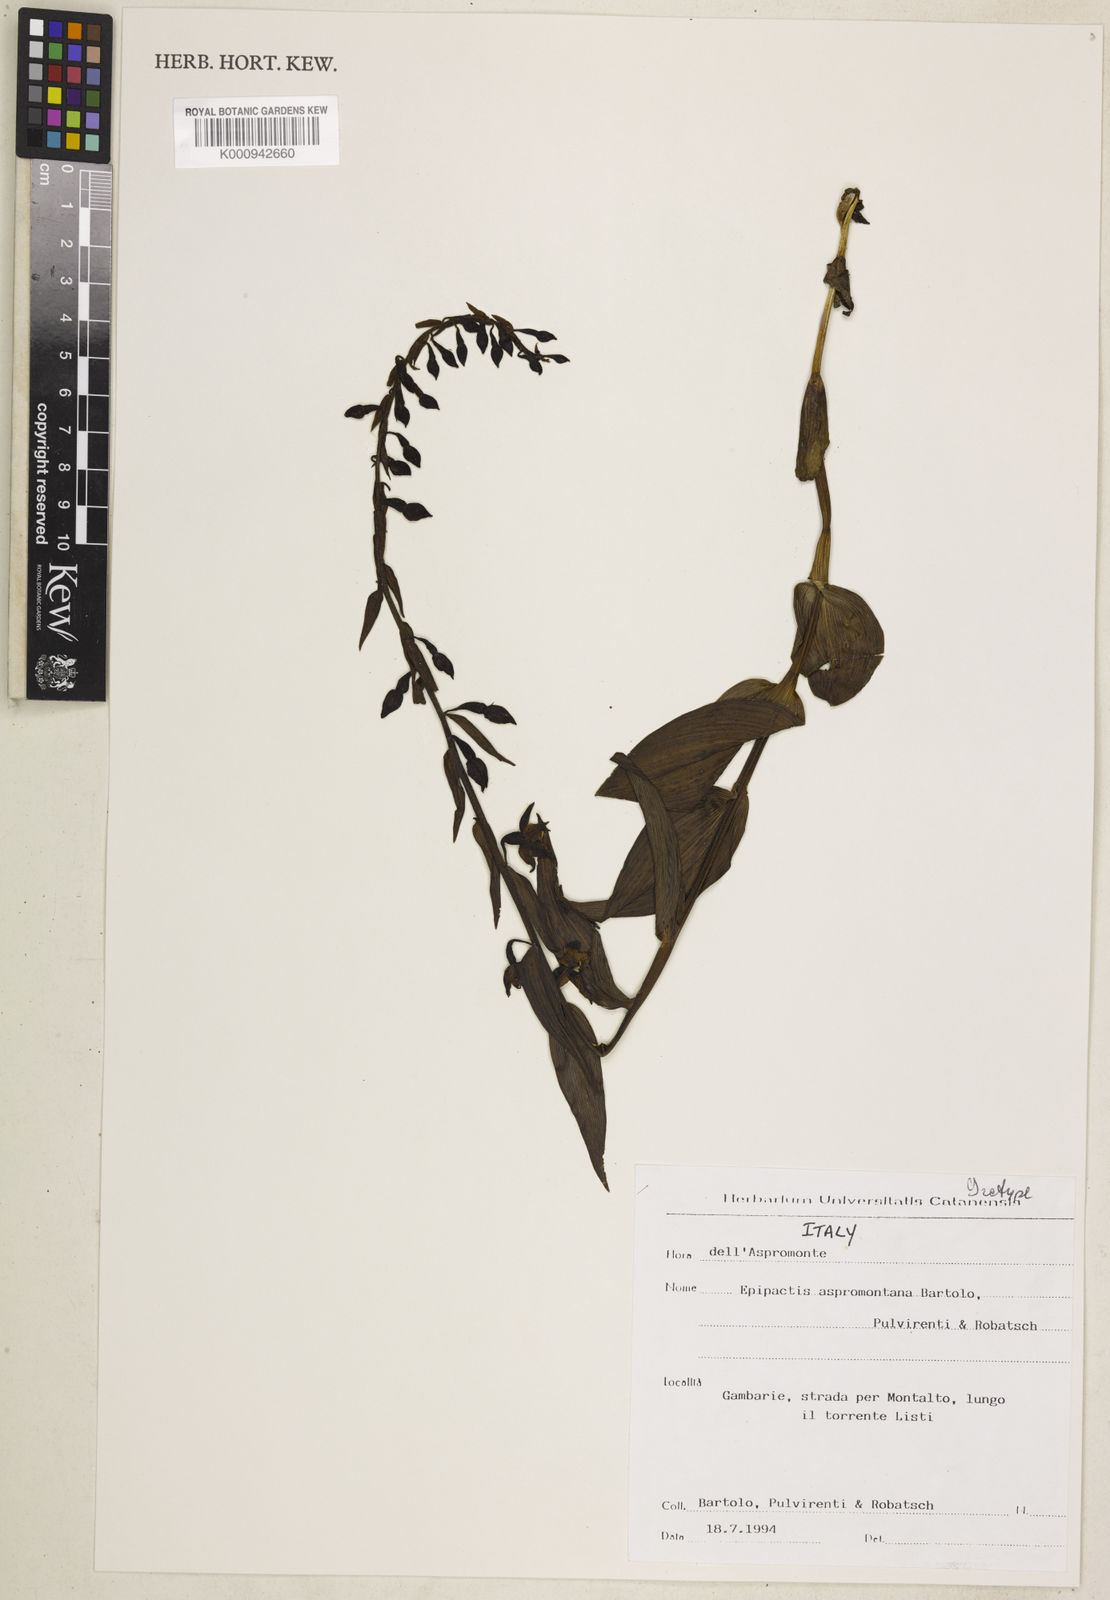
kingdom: Plantae
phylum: Tracheophyta
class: Liliopsida
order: Asparagales
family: Orchidaceae
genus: Epipactis
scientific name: Epipactis helleborine
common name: Broad-leaved helleborine
